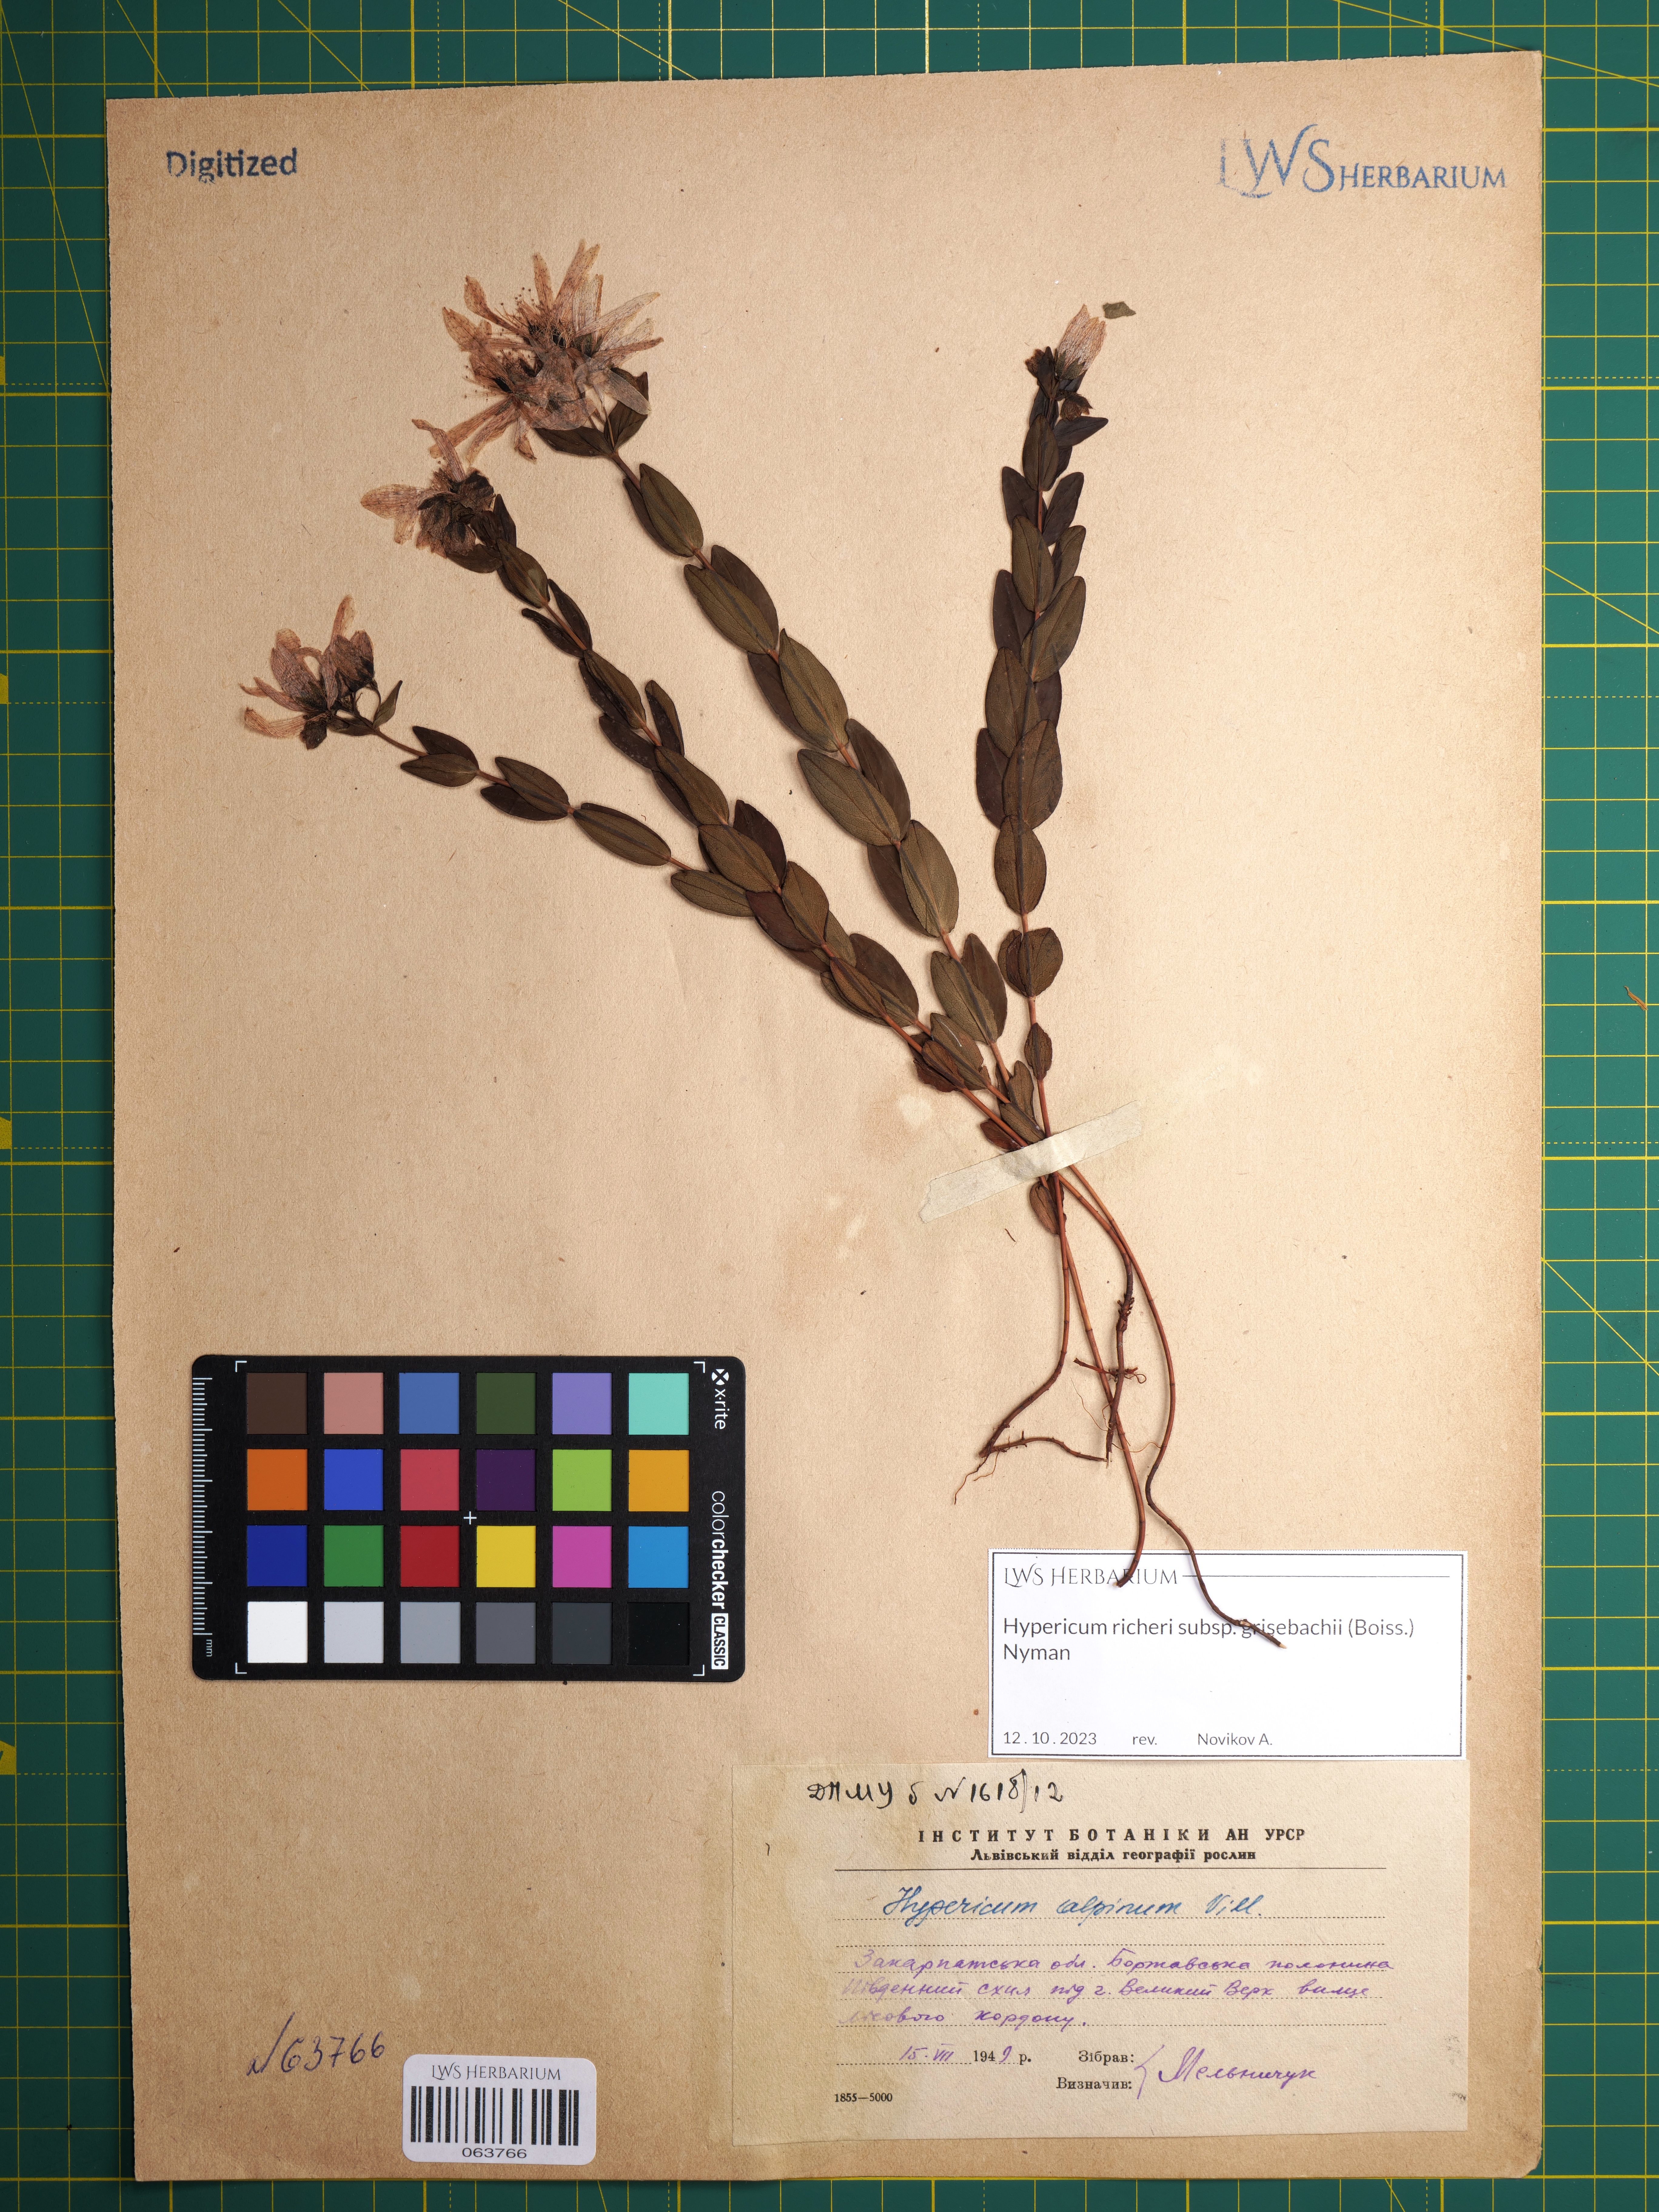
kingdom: Plantae
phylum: Tracheophyta
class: Magnoliopsida
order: Malpighiales
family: Hypericaceae
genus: Hypericum
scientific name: Hypericum richeri
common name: Alpine st john's-wort
